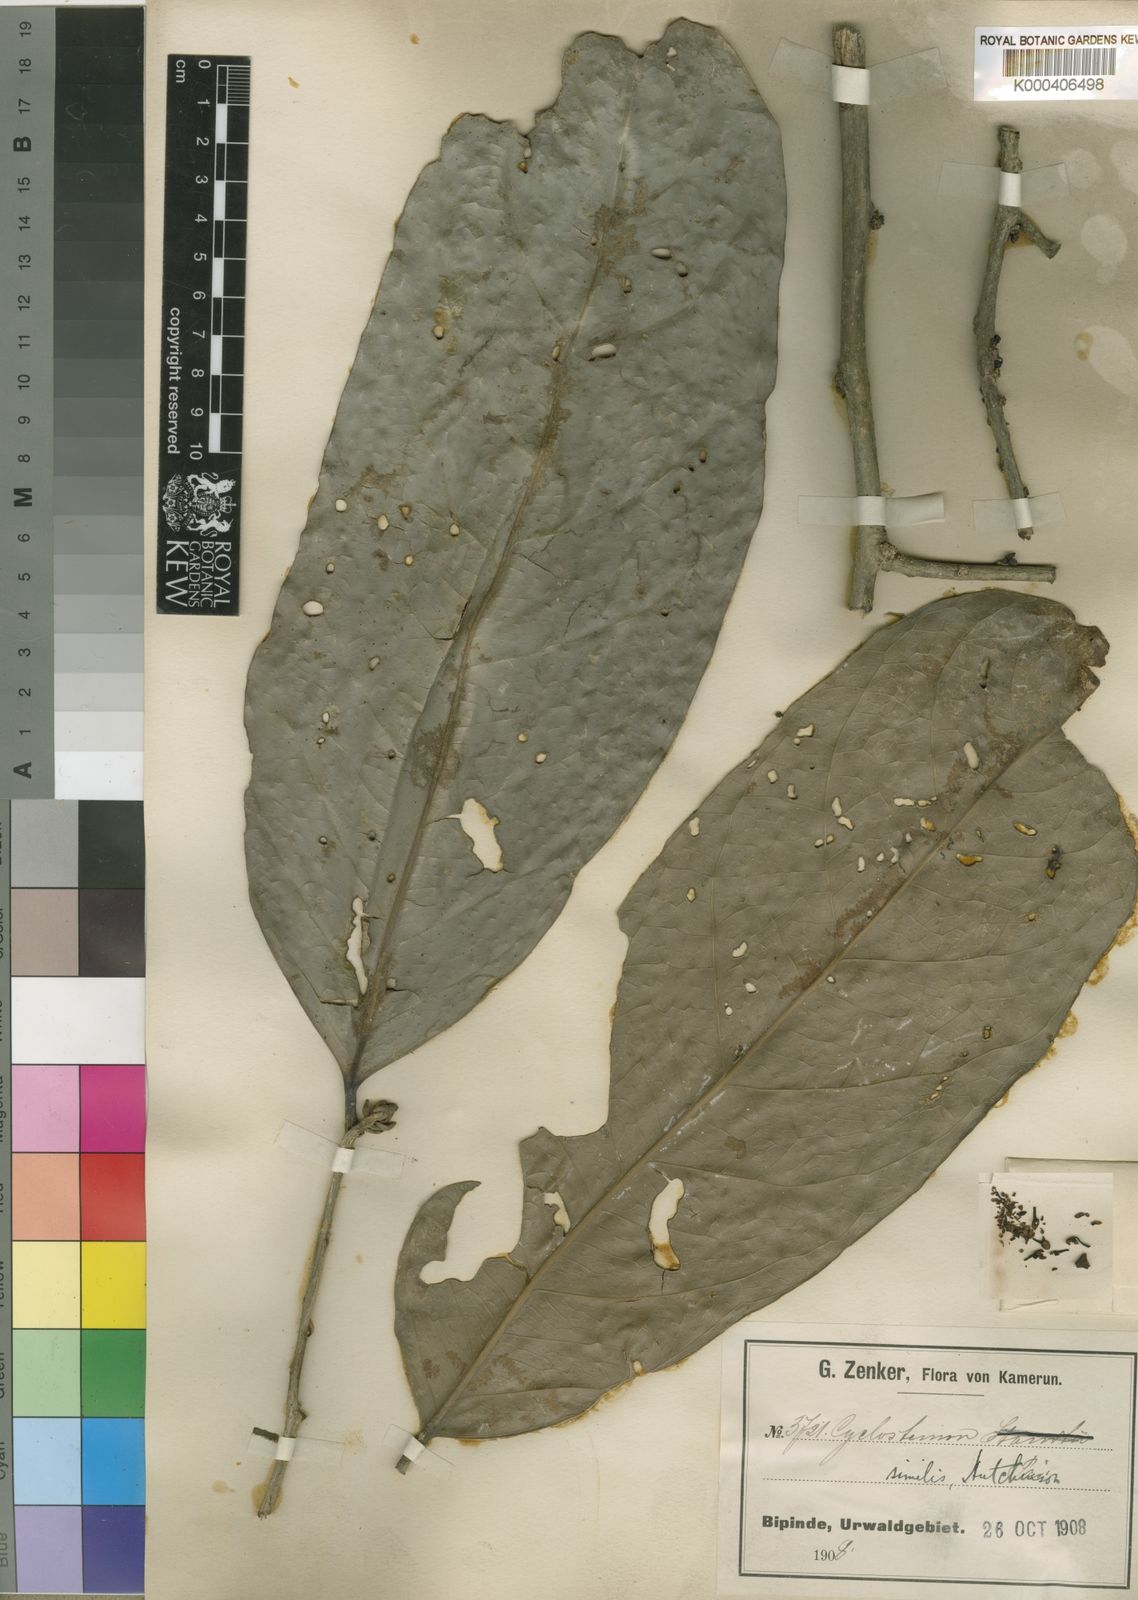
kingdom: Plantae
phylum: Tracheophyta
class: Magnoliopsida
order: Malpighiales
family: Putranjivaceae
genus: Drypetes
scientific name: Drypetes similis
